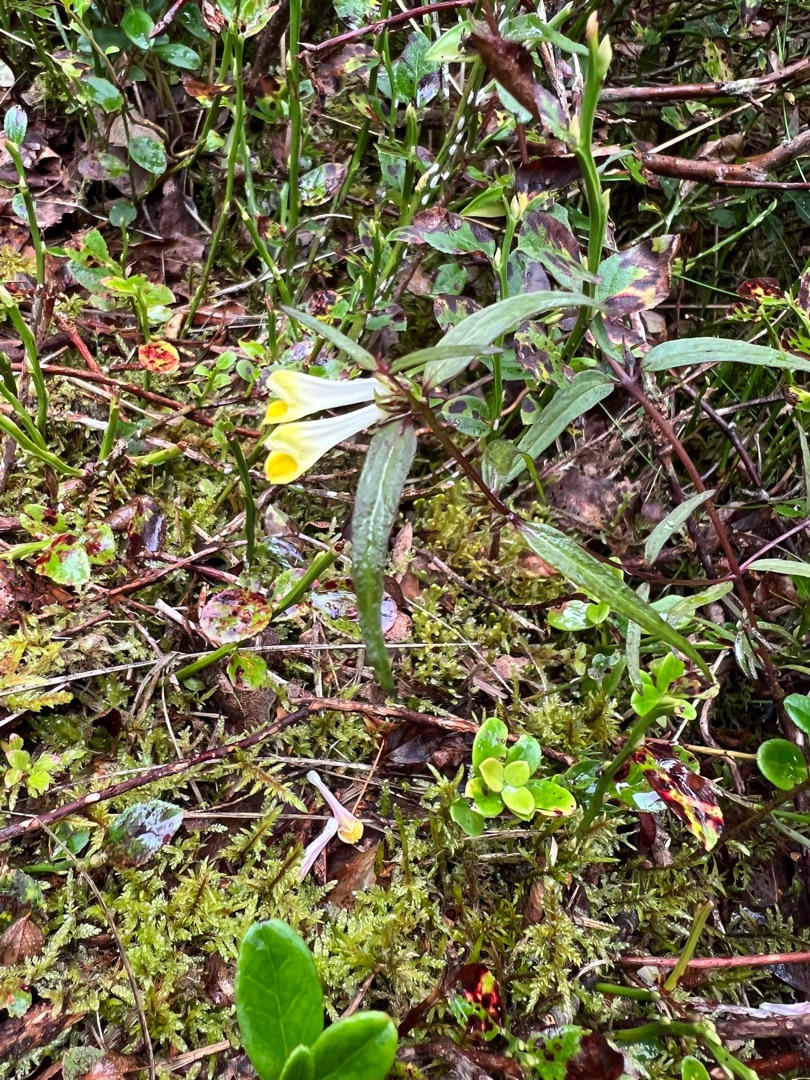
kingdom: Plantae
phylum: Tracheophyta
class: Magnoliopsida
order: Lamiales
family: Orobanchaceae
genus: Melampyrum
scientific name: Melampyrum pratense
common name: Almindelig kohvede
